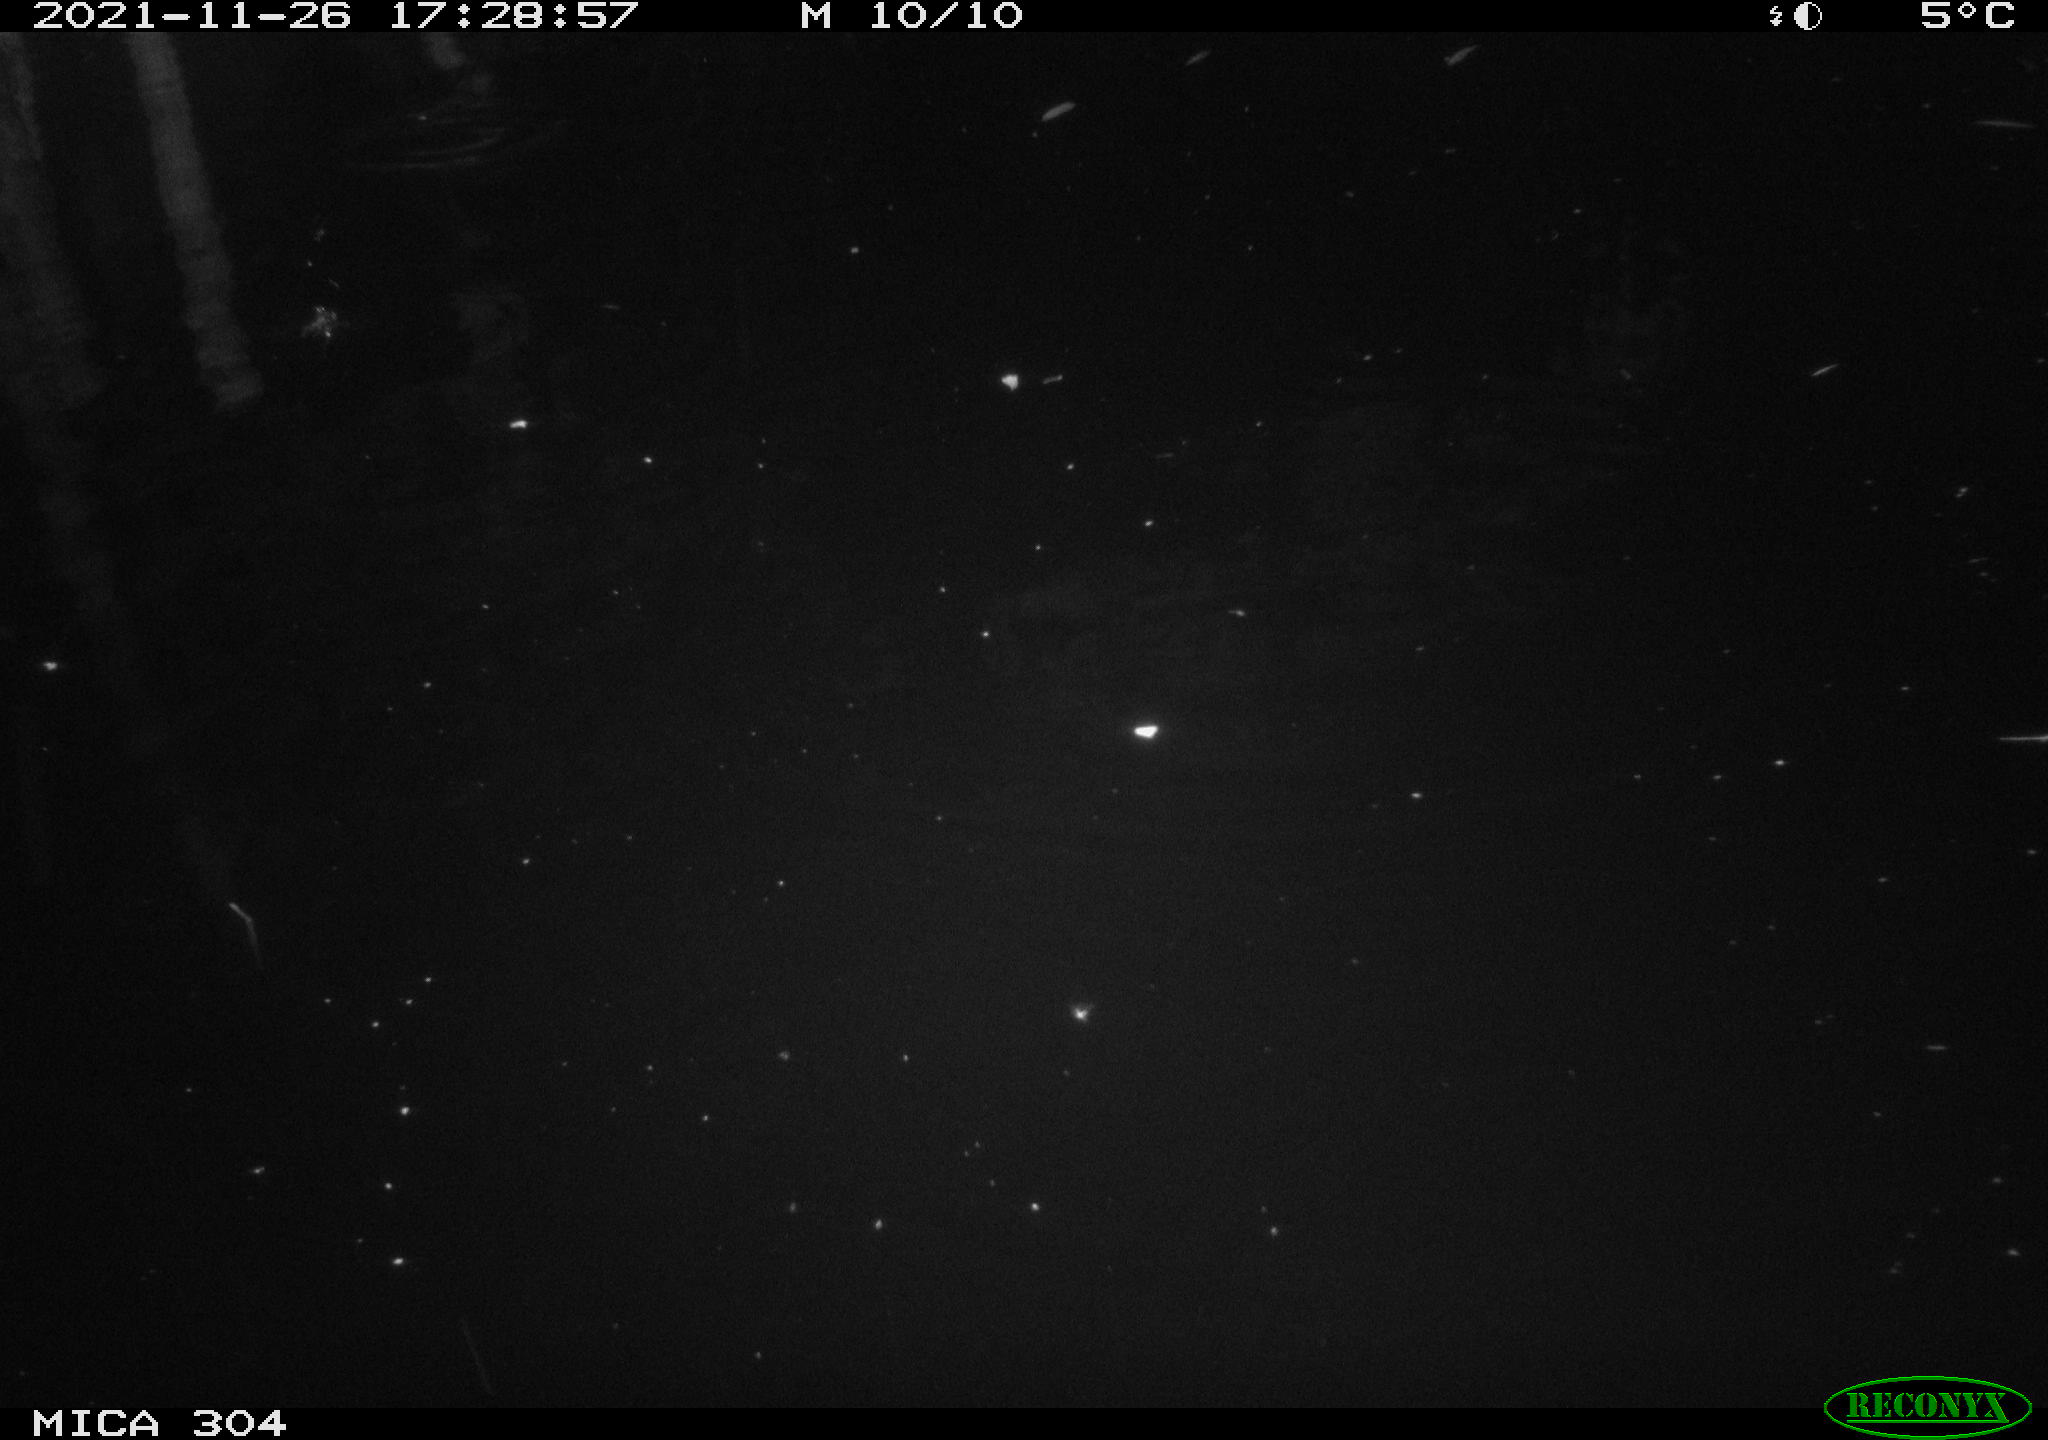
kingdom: Animalia
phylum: Chordata
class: Aves
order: Anseriformes
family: Anatidae
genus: Anas
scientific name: Anas platyrhynchos
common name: Mallard
